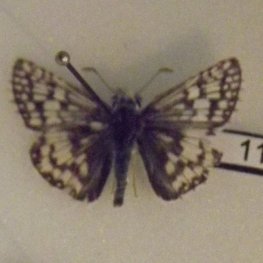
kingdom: Animalia
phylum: Arthropoda
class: Insecta
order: Lepidoptera
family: Hesperiidae
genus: Pyrgus
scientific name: Pyrgus communis
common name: Common Checkered-Skipper
